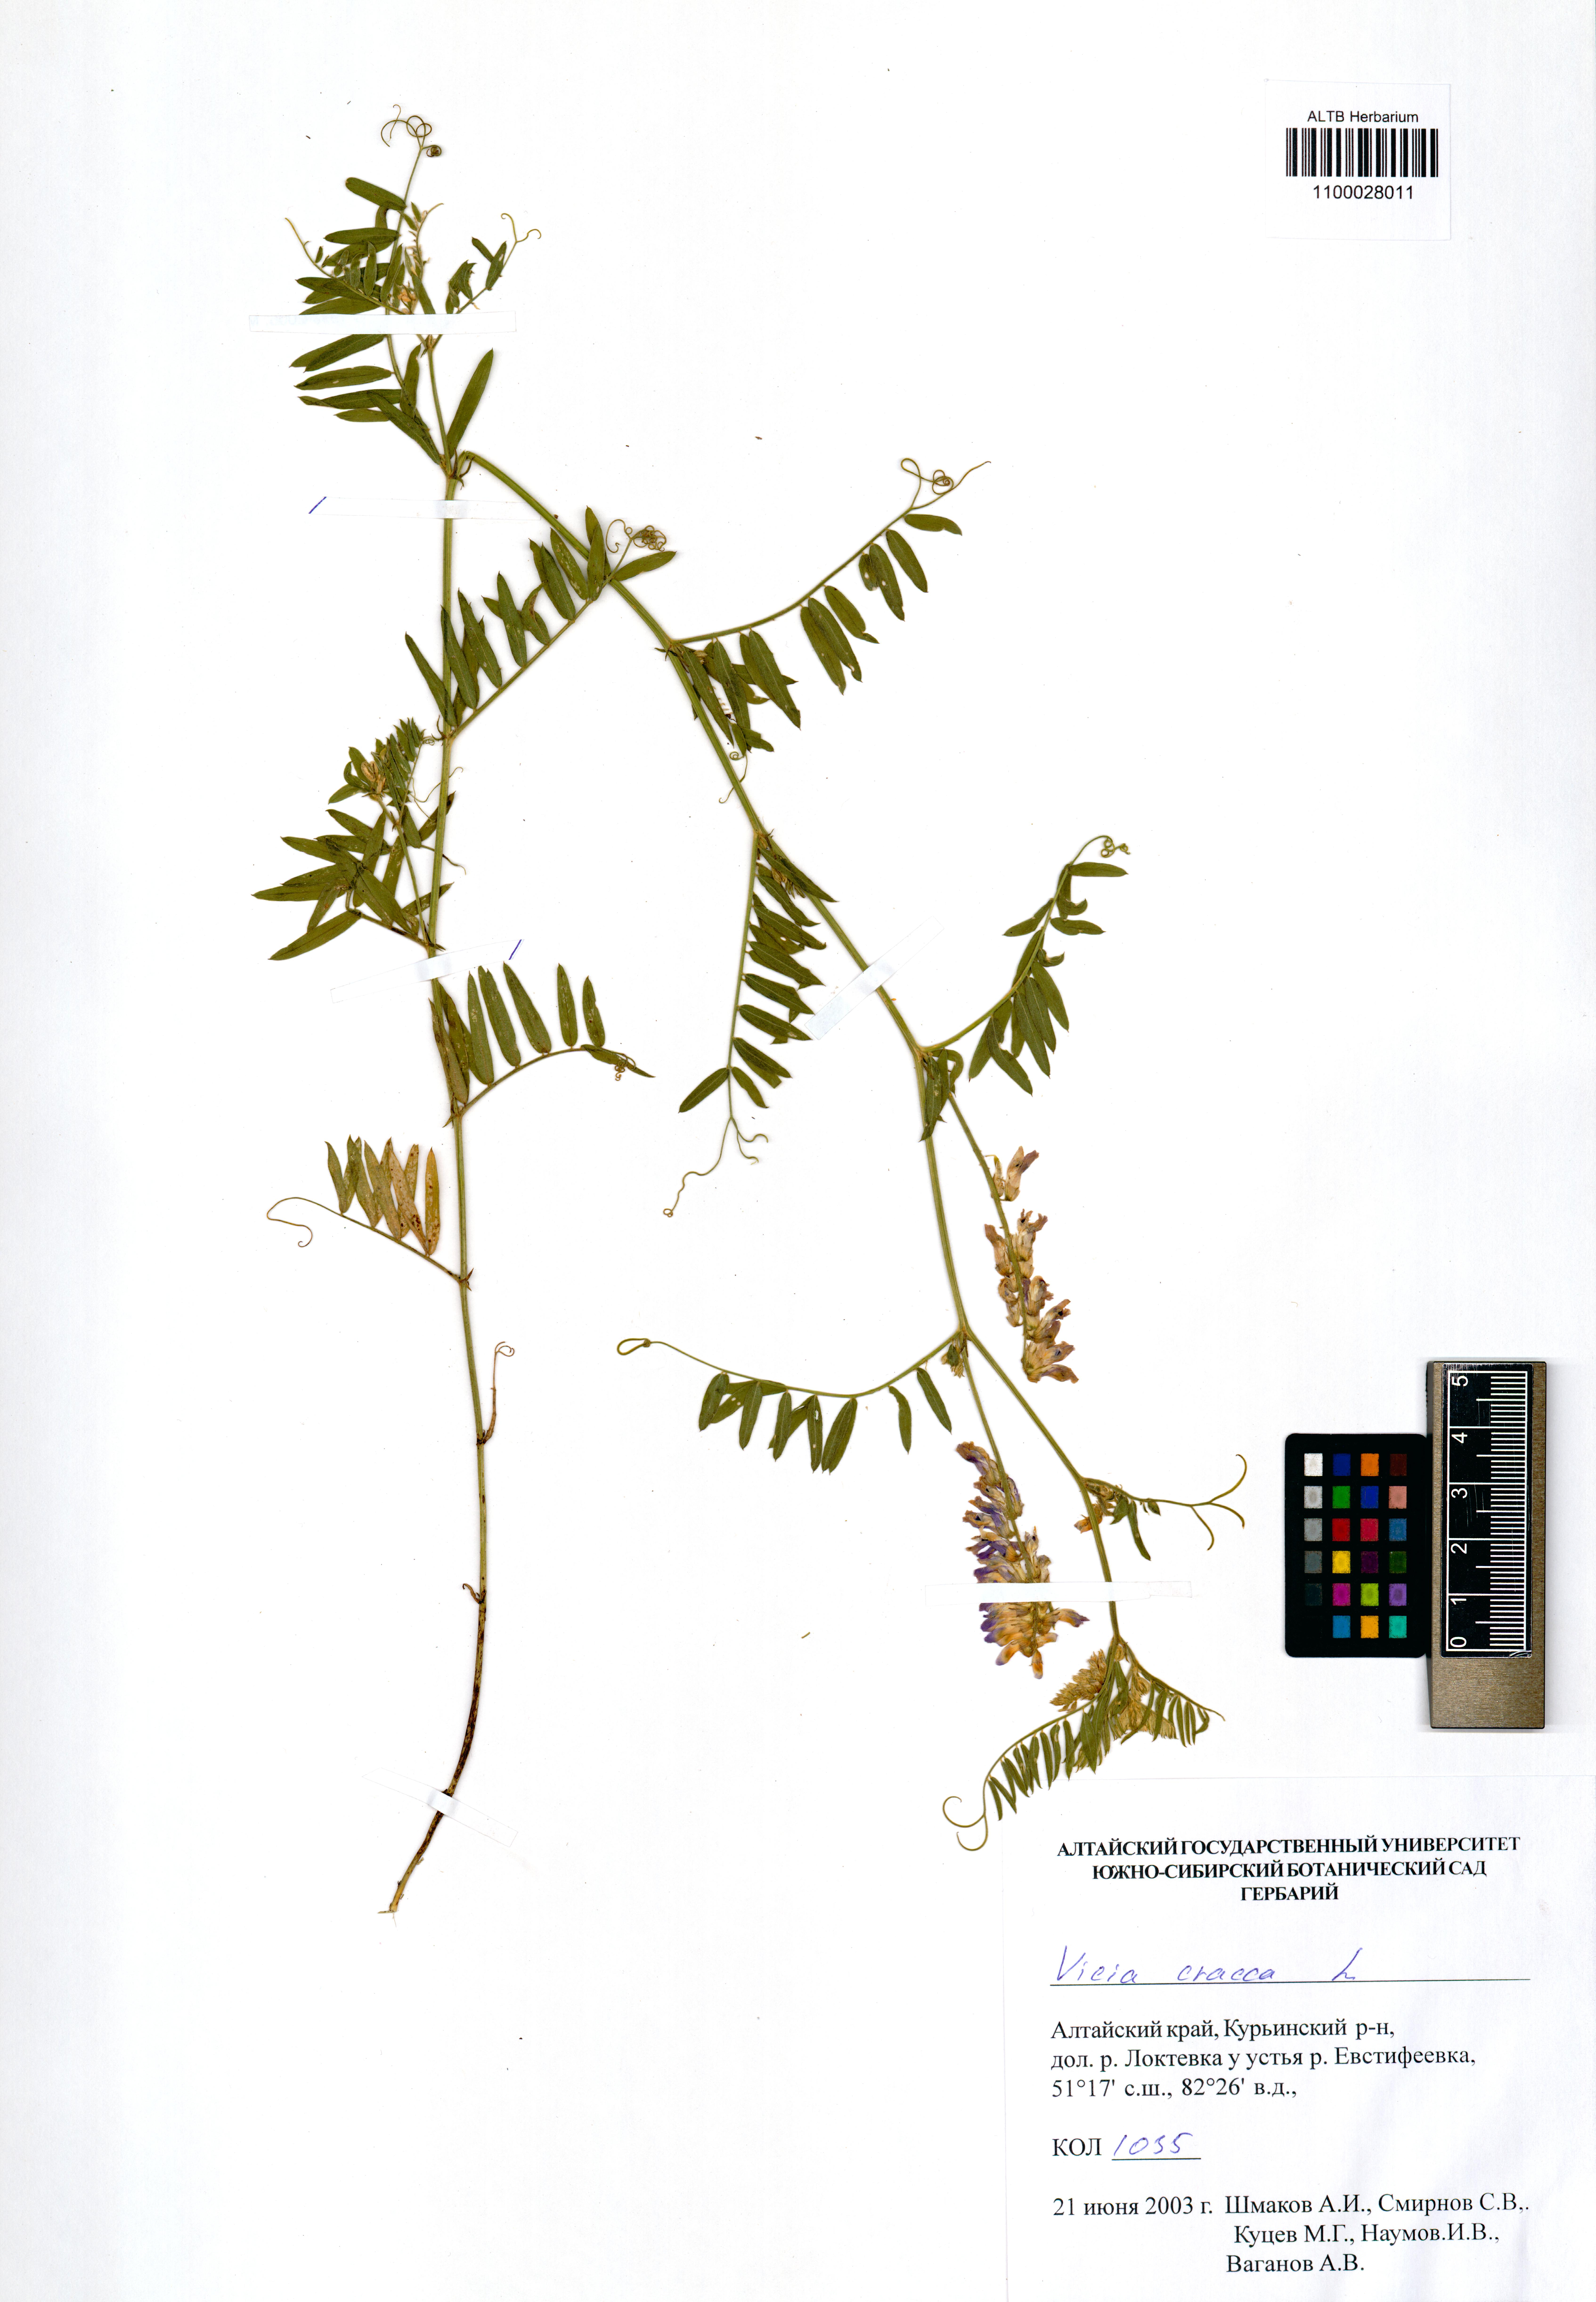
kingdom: Plantae
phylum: Tracheophyta
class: Magnoliopsida
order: Fabales
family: Fabaceae
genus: Vicia
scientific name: Vicia cracca
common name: Bird vetch
